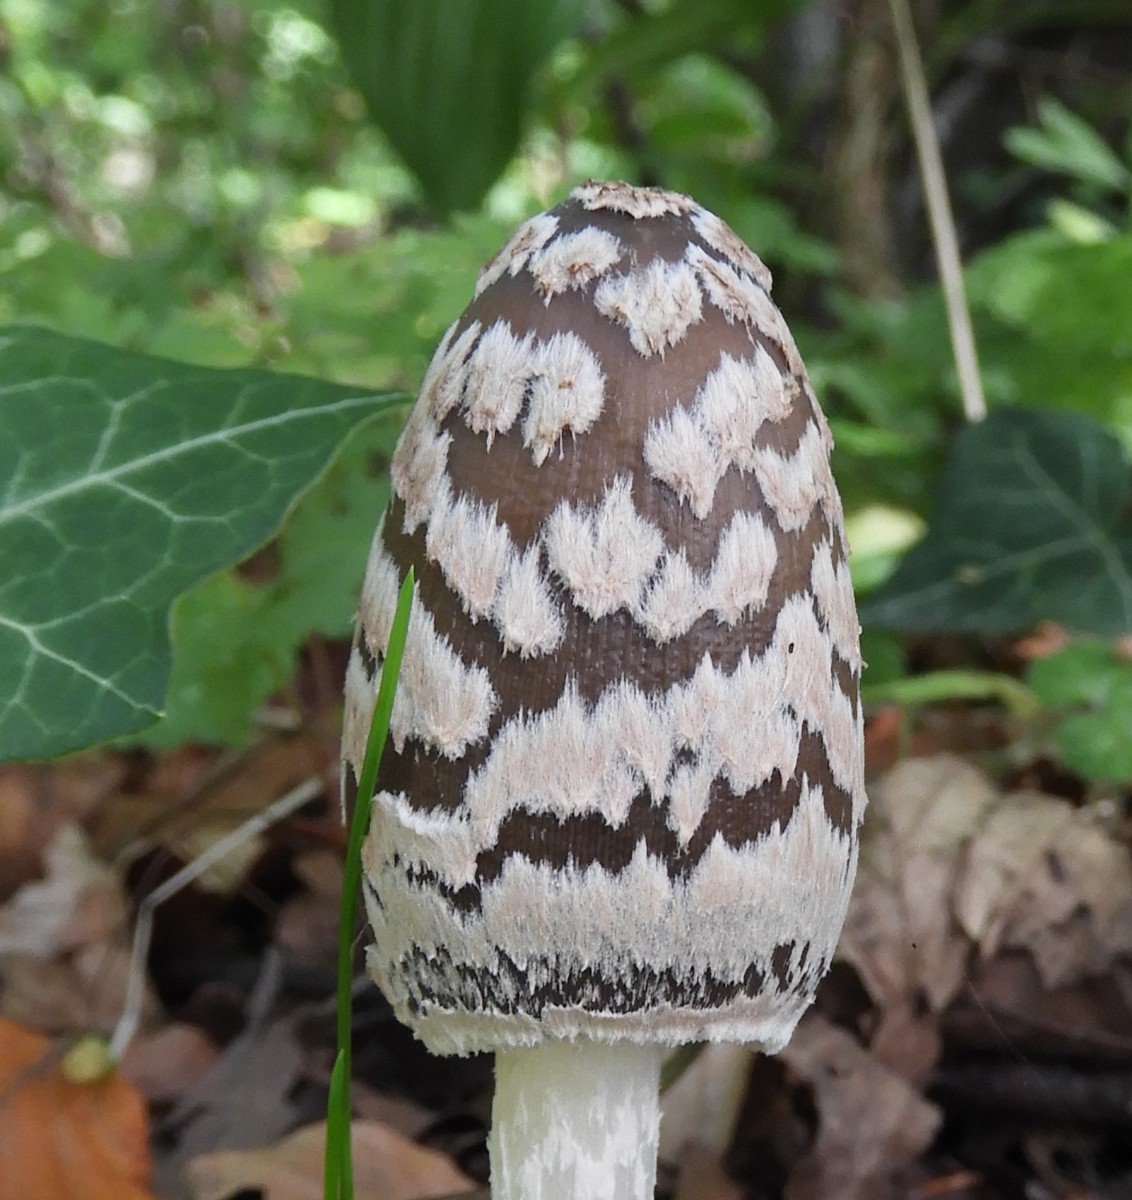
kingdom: Fungi
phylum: Basidiomycota
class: Agaricomycetes
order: Agaricales
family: Psathyrellaceae
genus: Coprinopsis
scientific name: Coprinopsis picacea
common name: skade-blækhat
